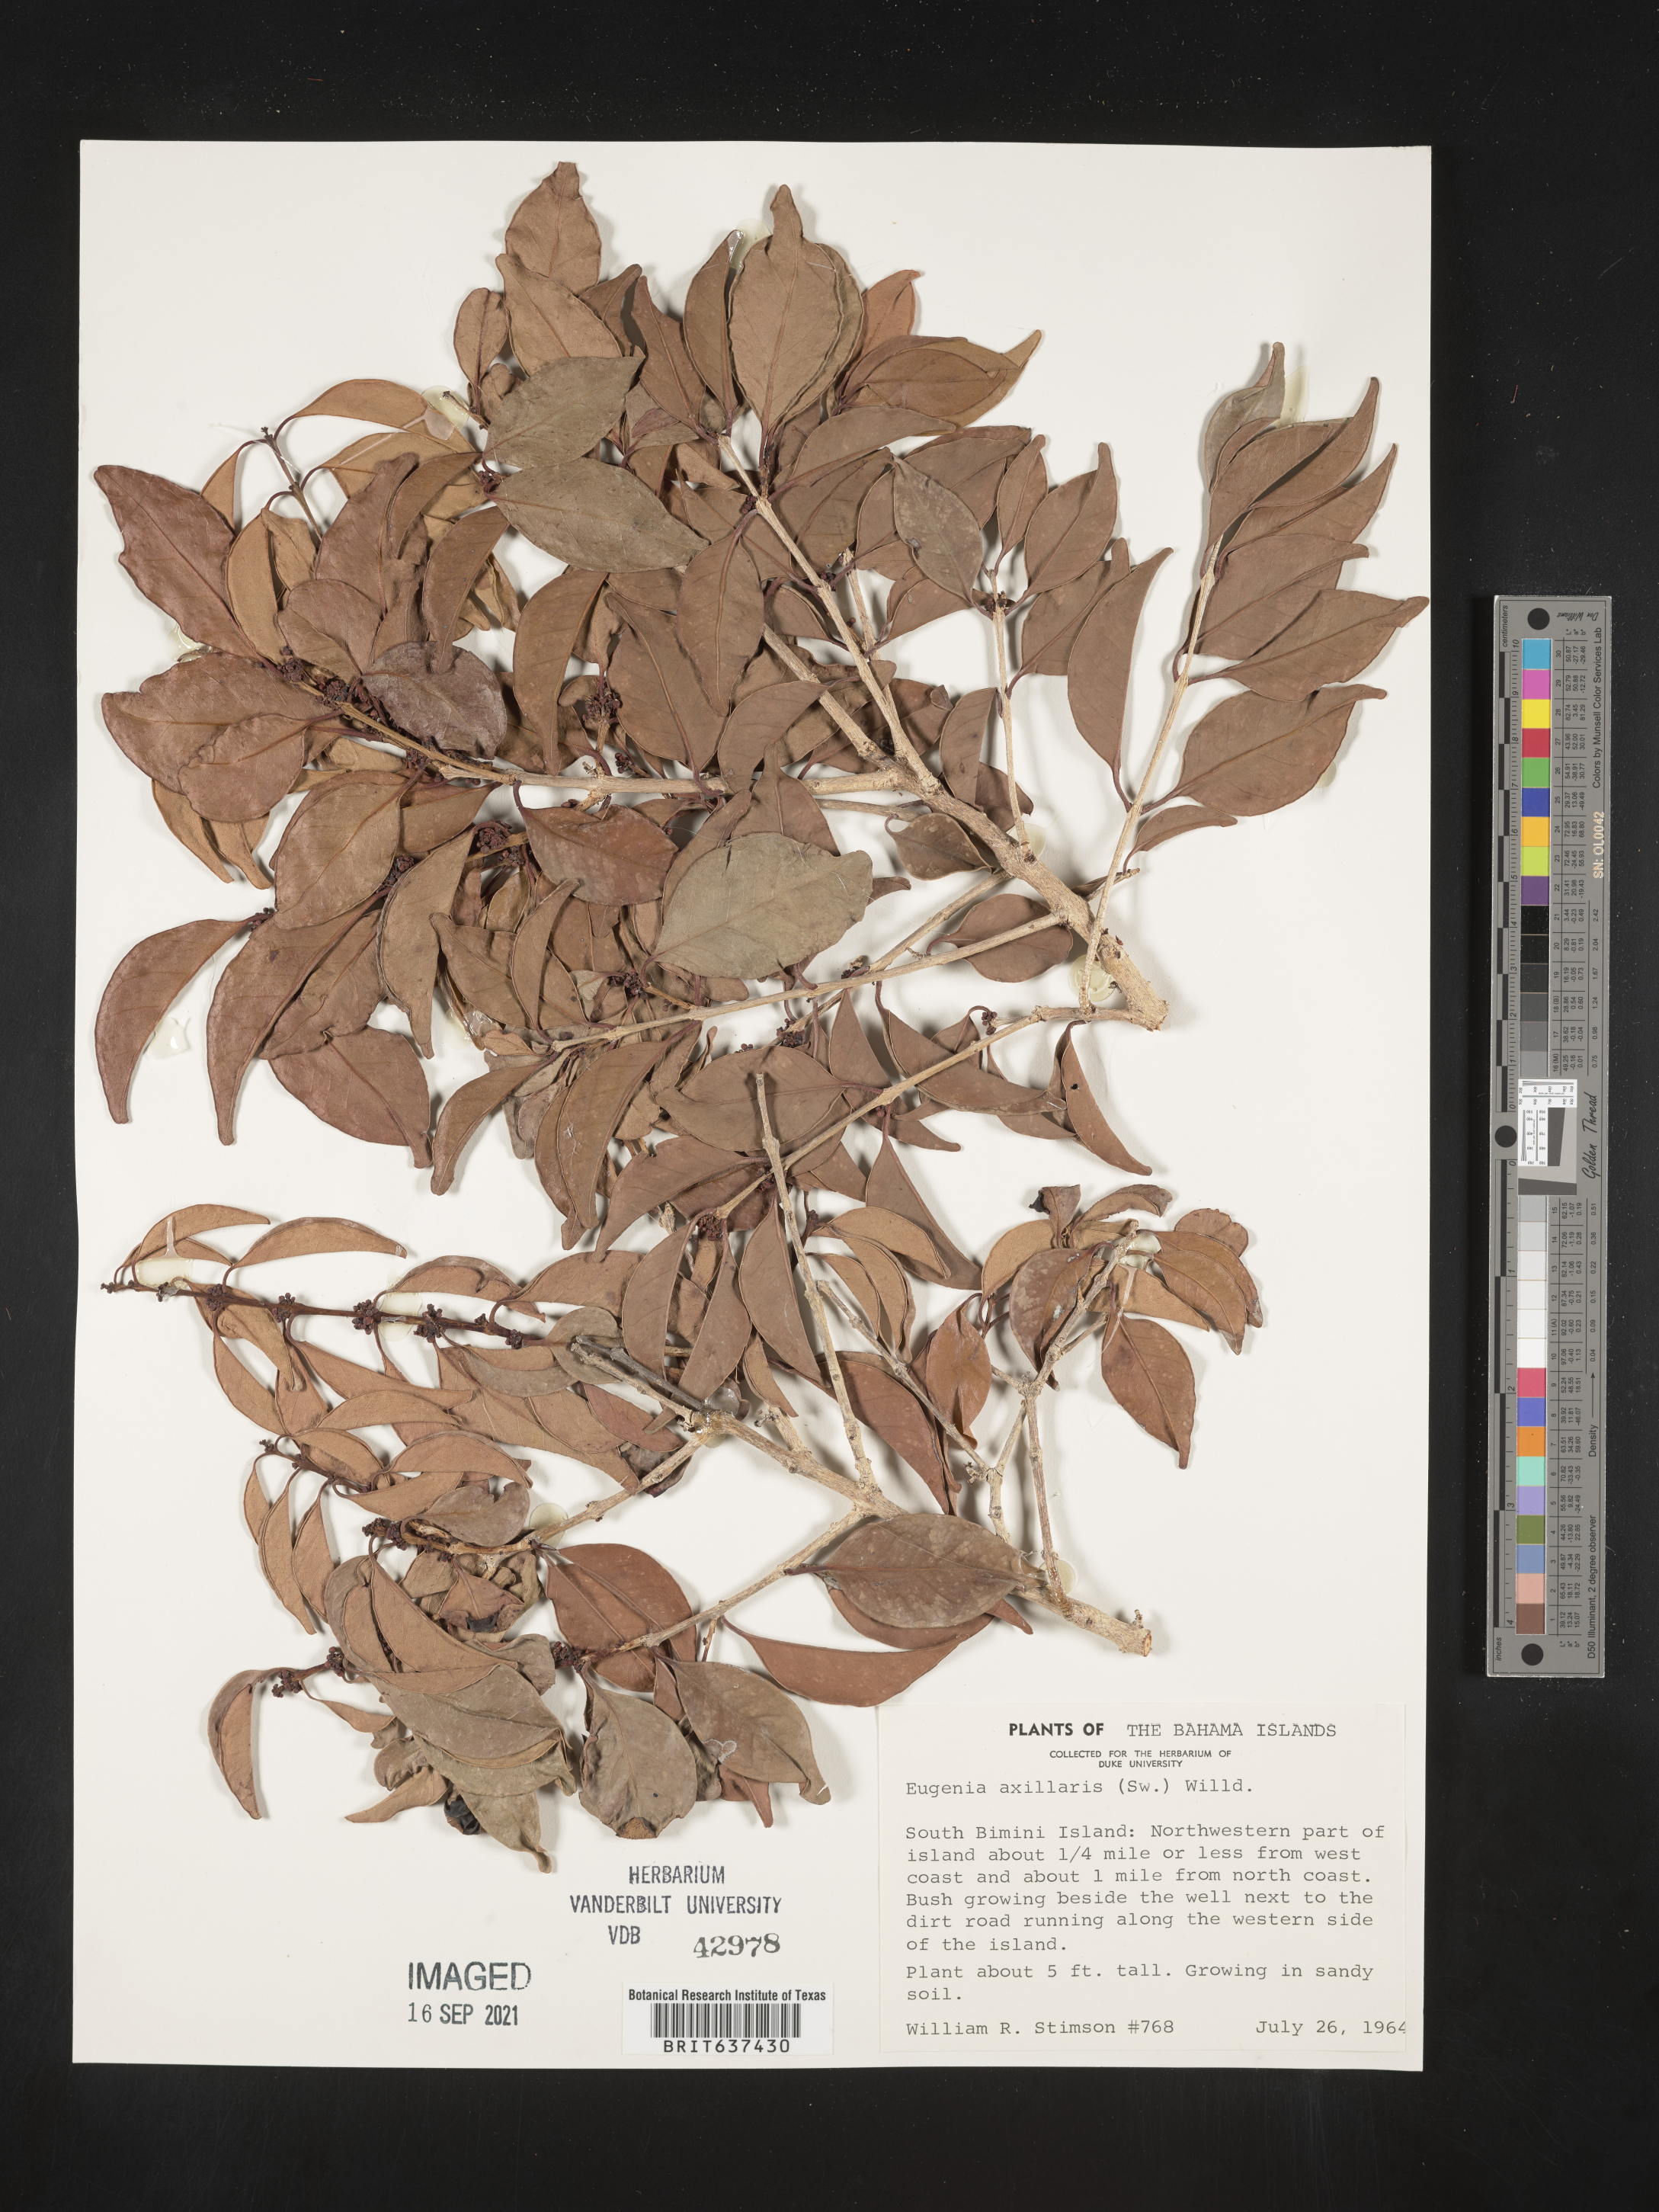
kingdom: Plantae
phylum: Tracheophyta
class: Magnoliopsida
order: Myrtales
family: Myrtaceae
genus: Eugenia
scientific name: Eugenia
